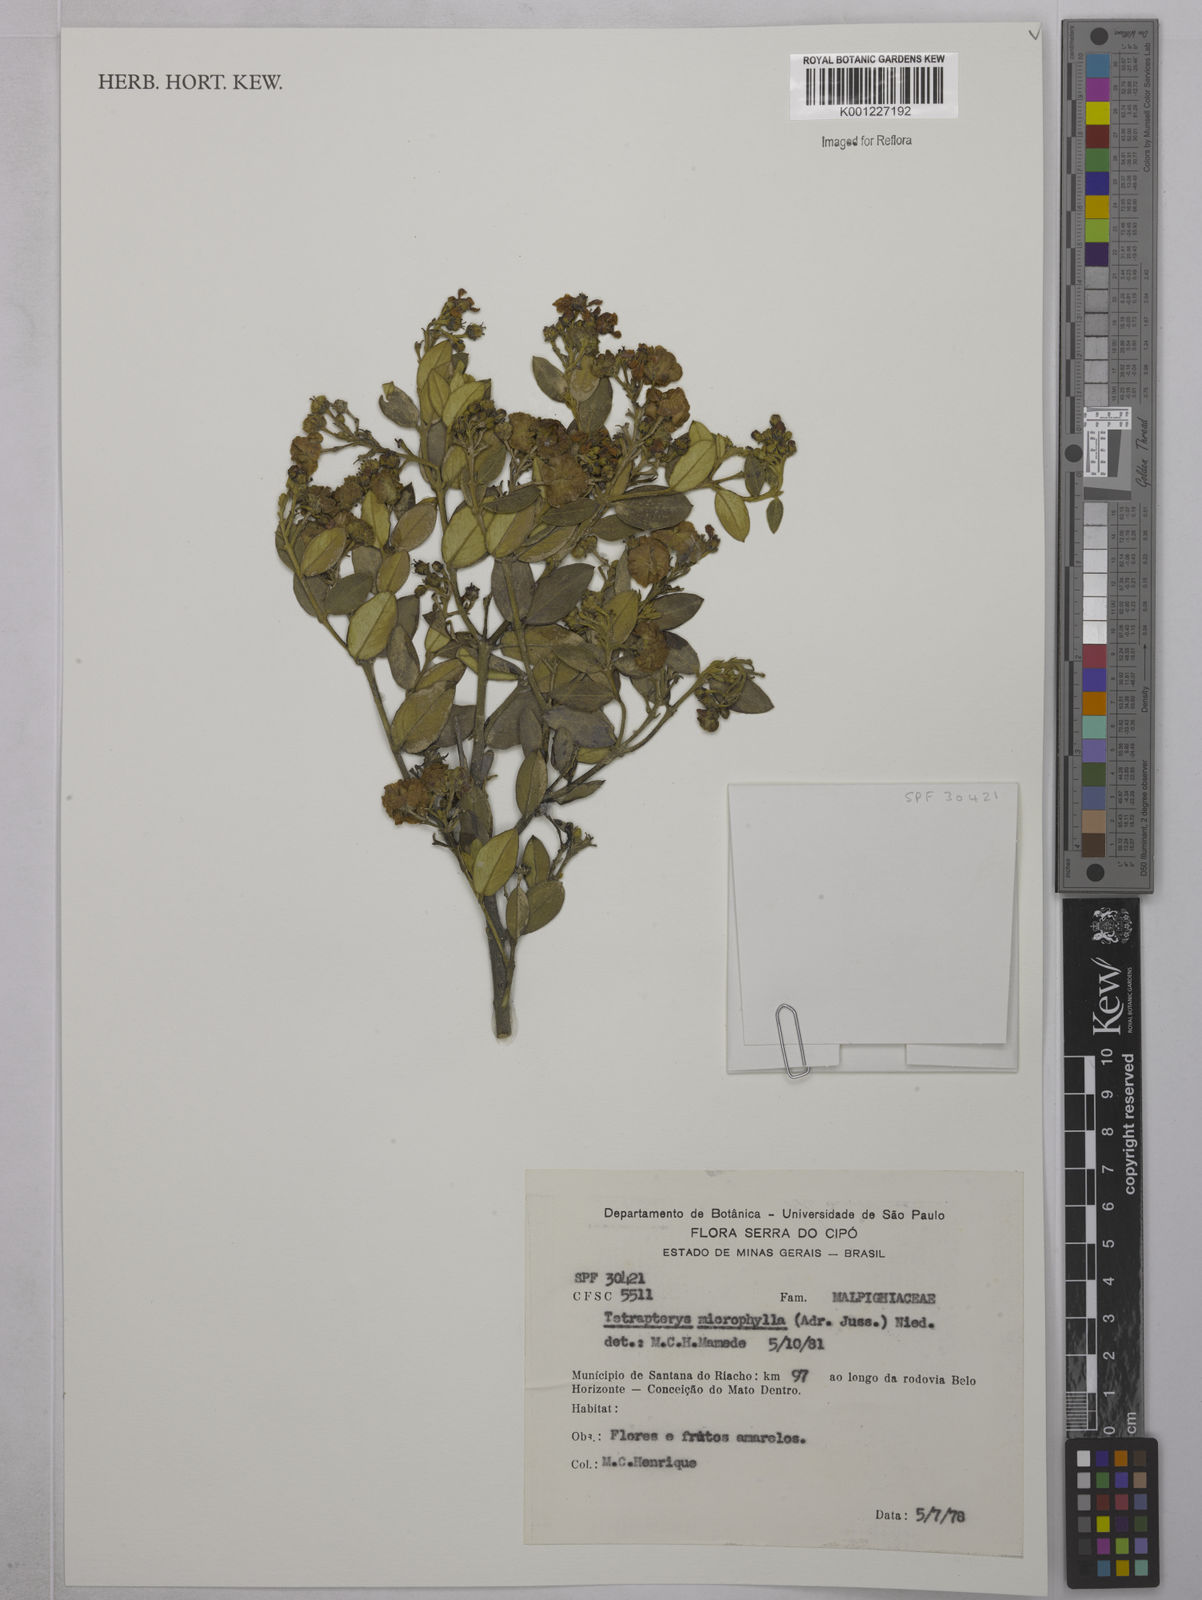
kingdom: Plantae
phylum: Tracheophyta
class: Magnoliopsida
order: Malpighiales
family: Malpighiaceae
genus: Glicophyllum
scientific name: Glicophyllum microphyllum
